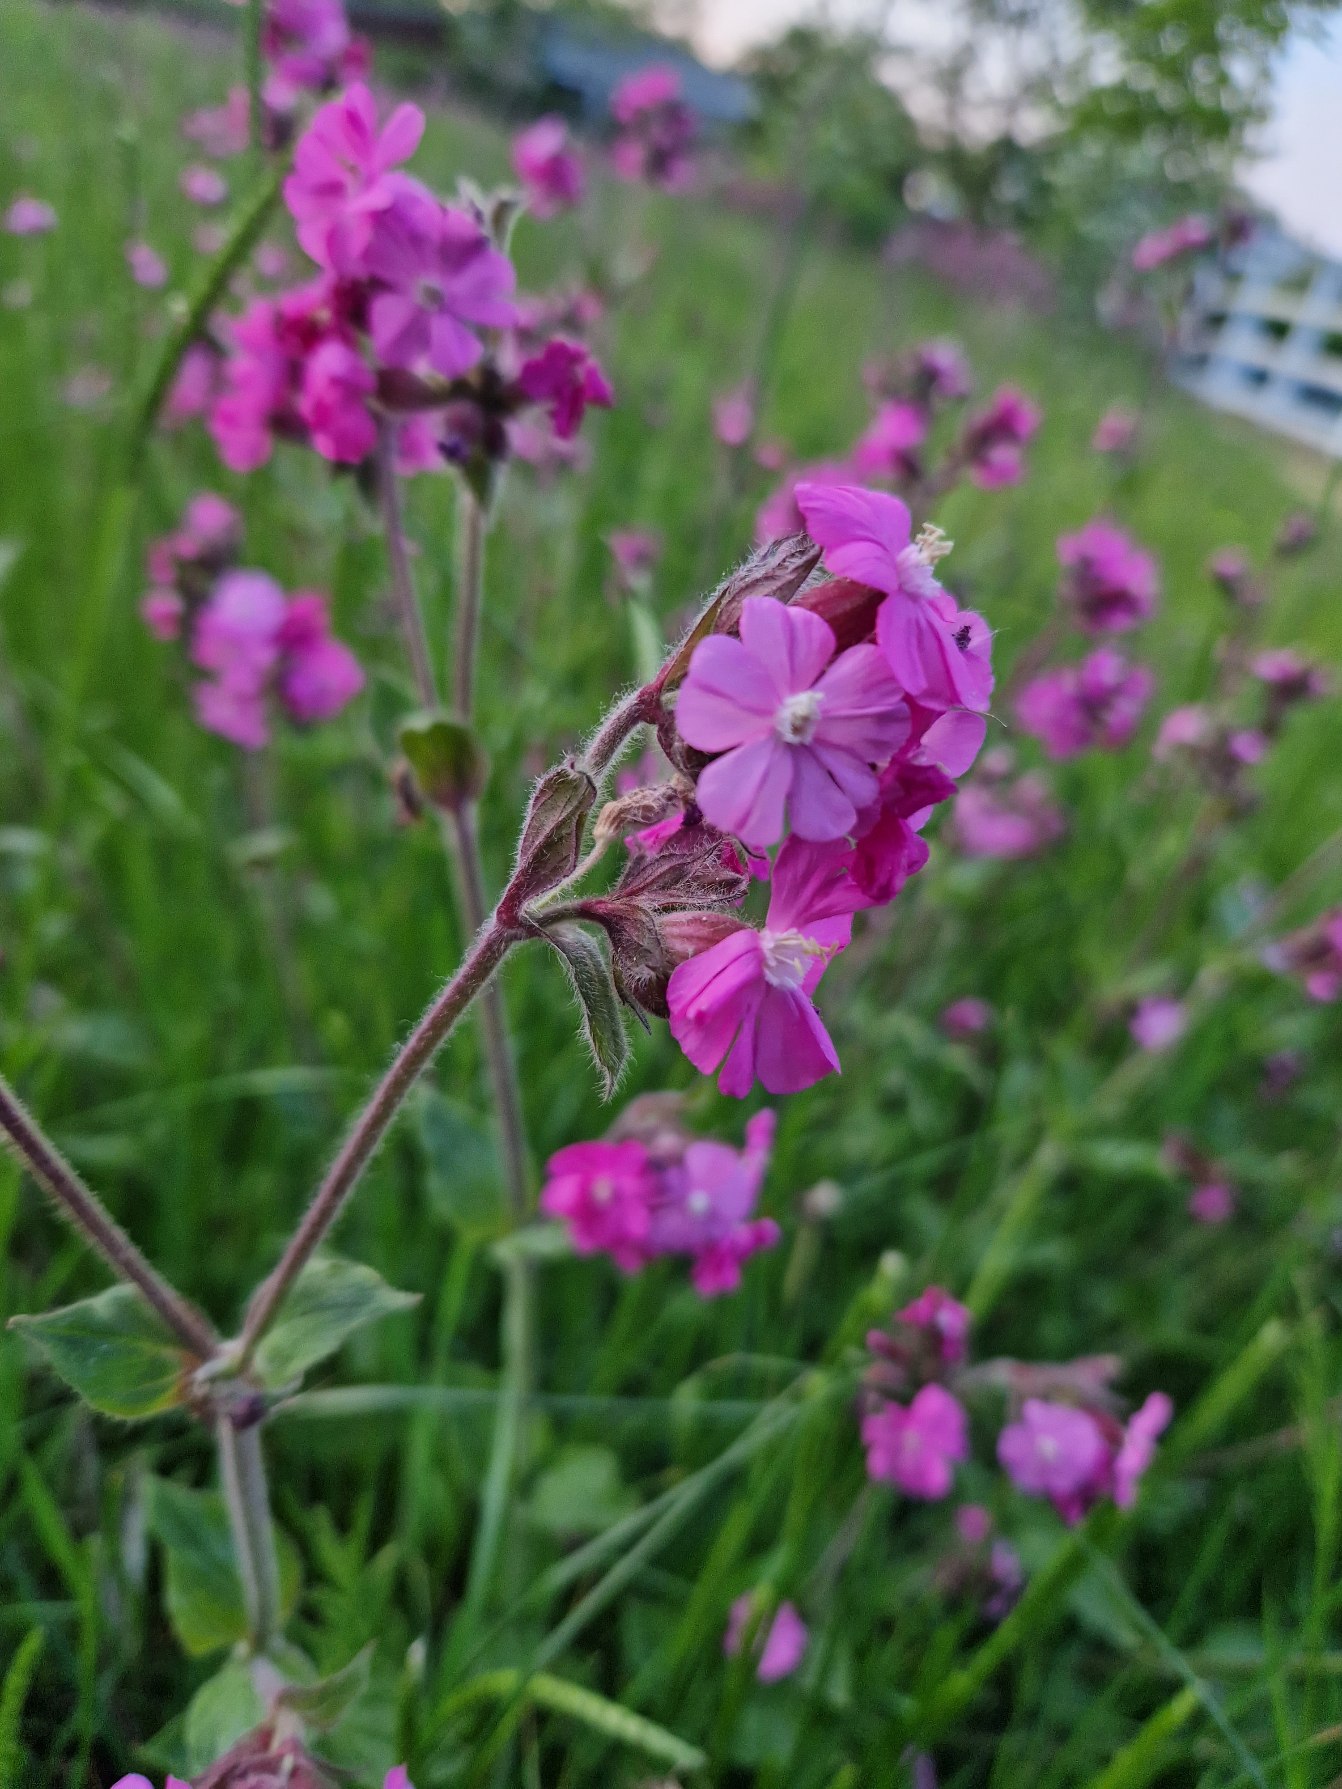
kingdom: Plantae
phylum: Tracheophyta
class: Magnoliopsida
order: Caryophyllales
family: Caryophyllaceae
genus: Silene
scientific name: Silene dioica
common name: Dagpragtstjerne
